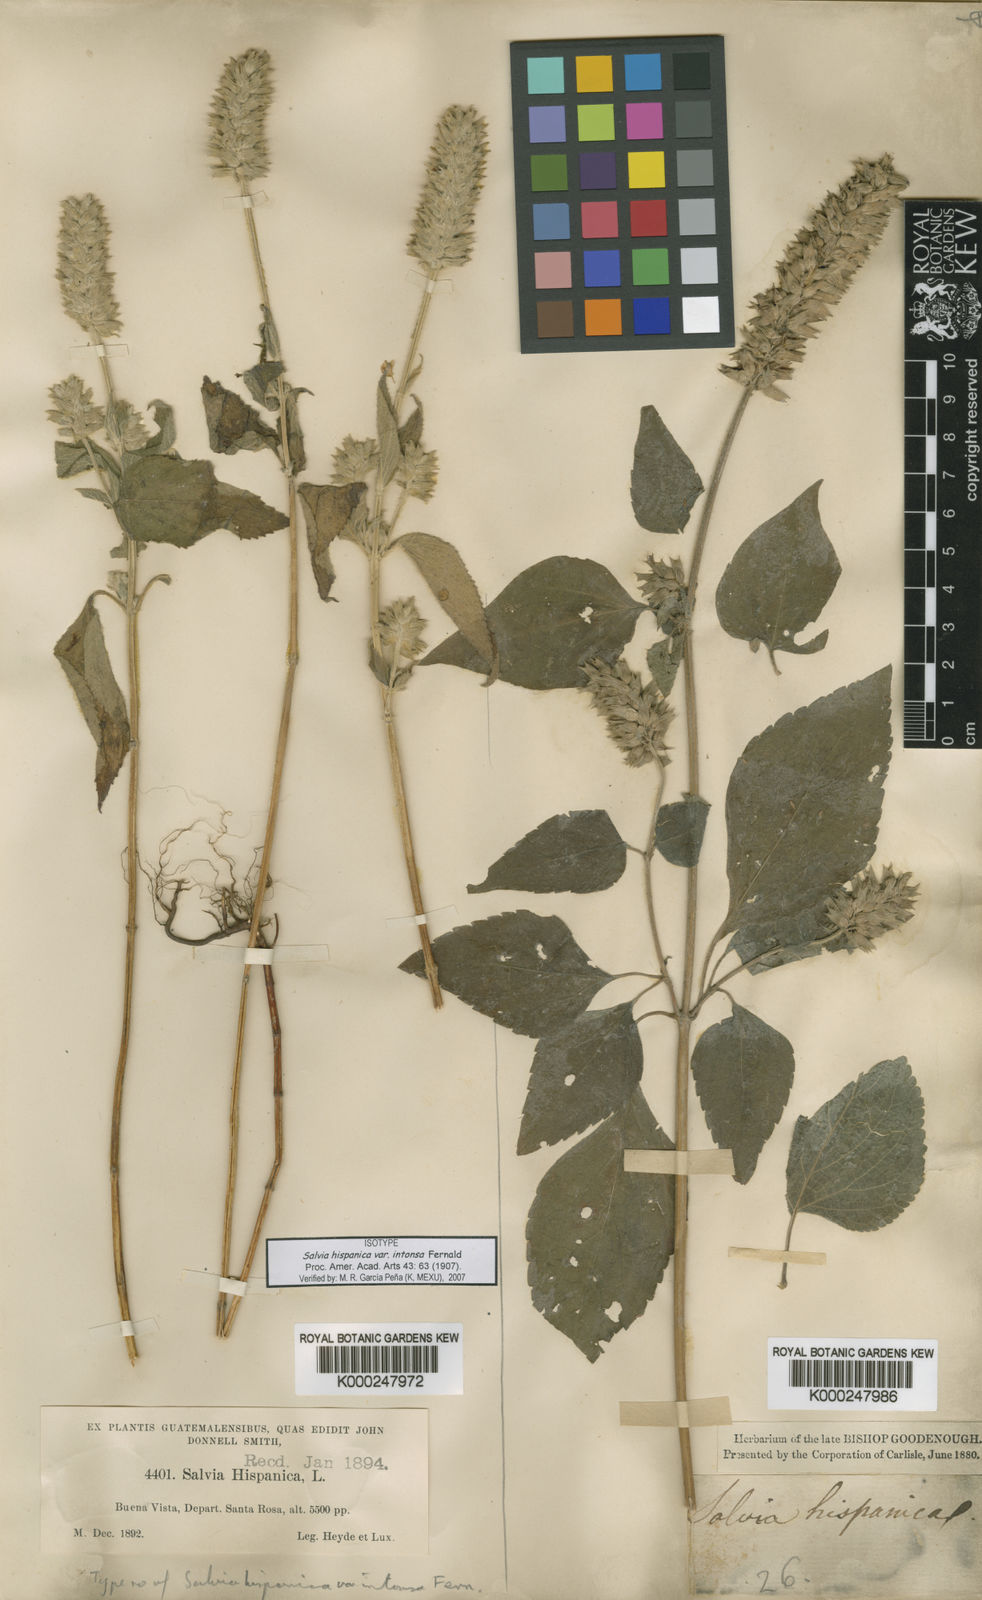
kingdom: Plantae
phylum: Tracheophyta
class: Magnoliopsida
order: Lamiales
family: Lamiaceae
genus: Salvia
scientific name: Salvia hispanica
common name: Chia
